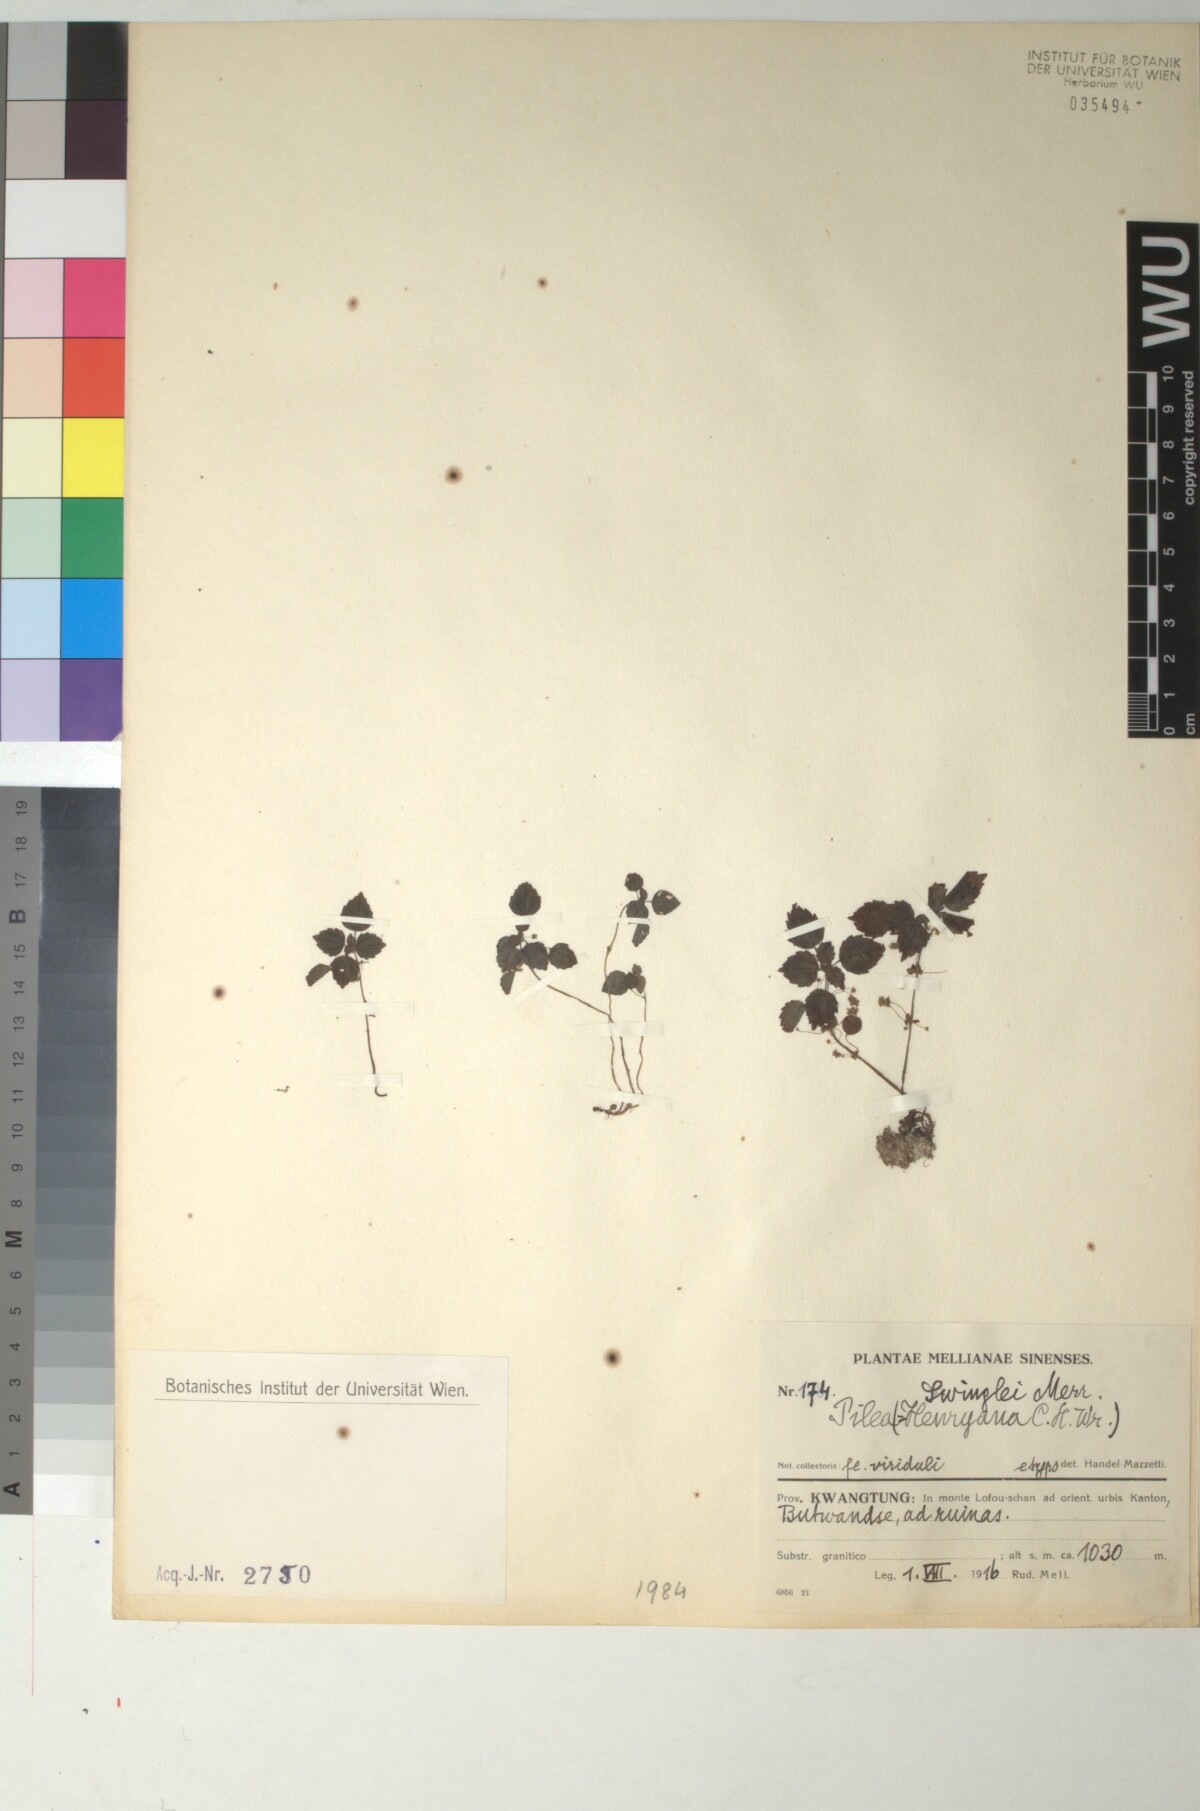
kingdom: Plantae
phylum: Tracheophyta
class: Magnoliopsida
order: Rosales
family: Urticaceae
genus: Pilea
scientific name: Pilea swinglei
